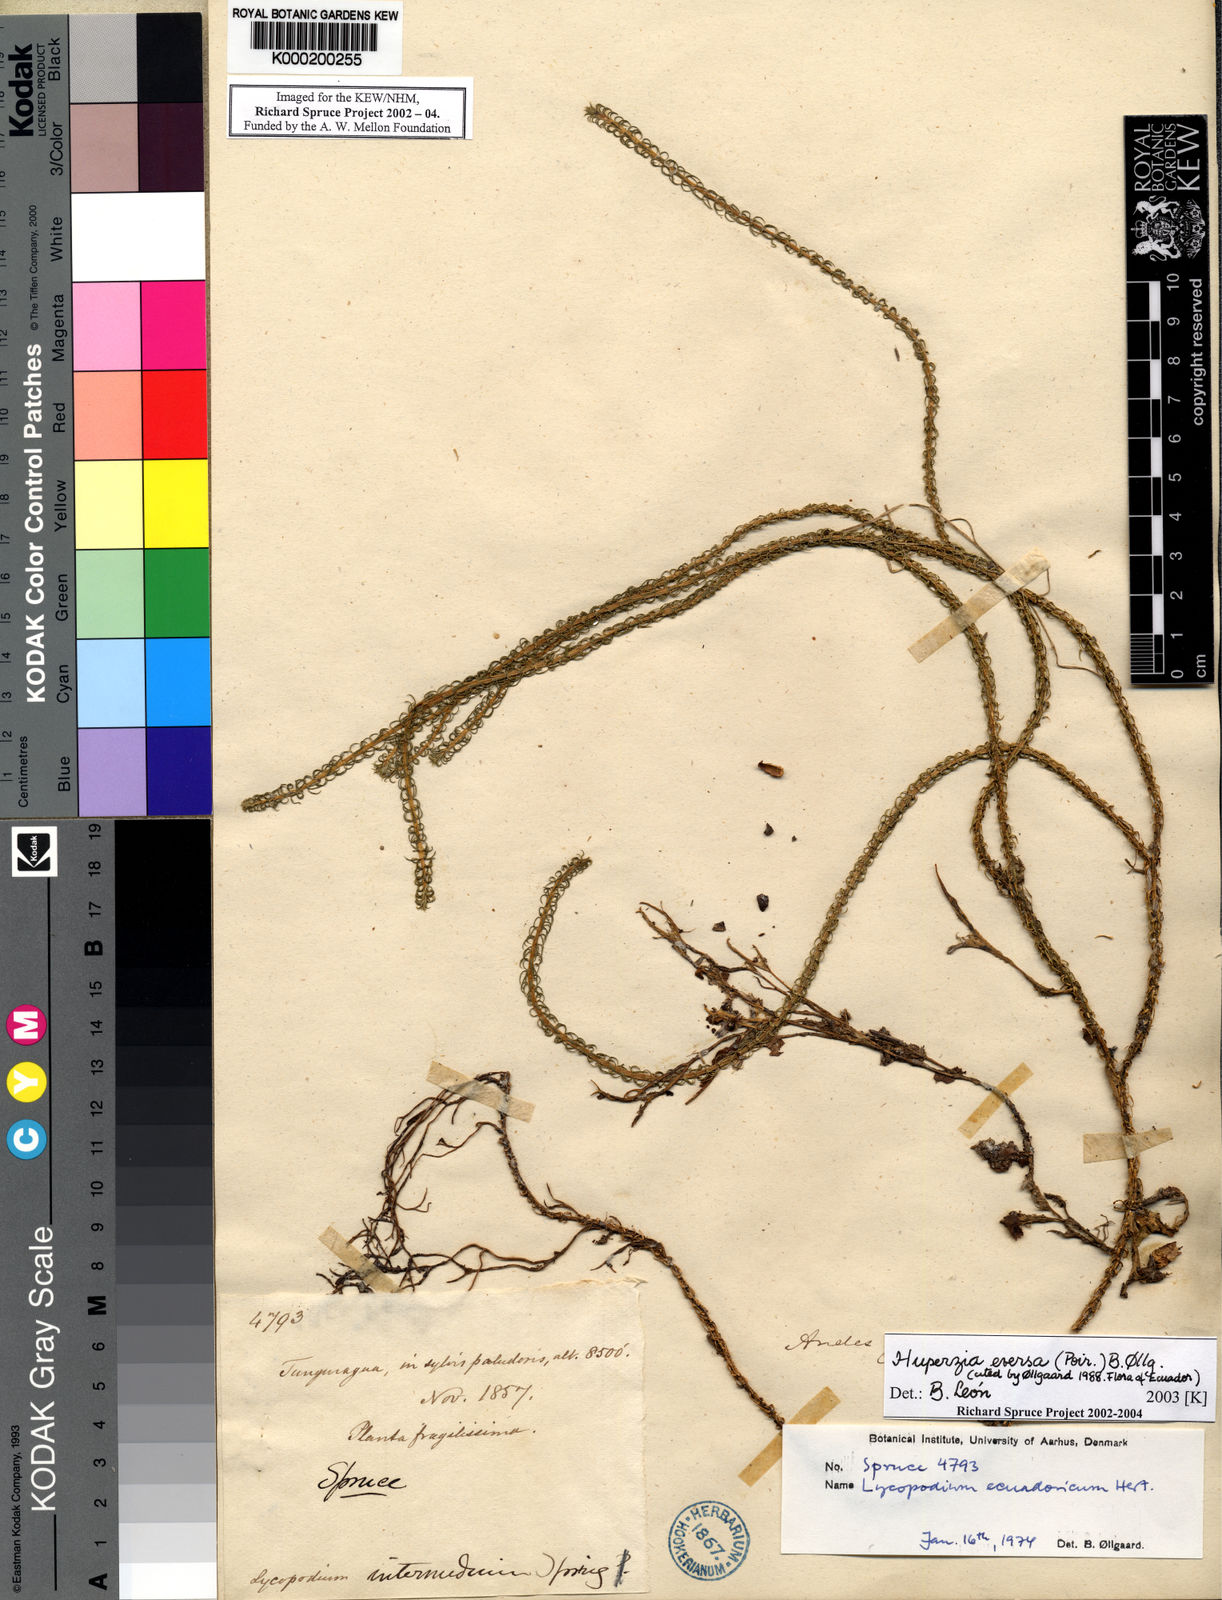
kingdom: Plantae
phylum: Tracheophyta
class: Lycopodiopsida
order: Lycopodiales
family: Lycopodiaceae
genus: Huperzia
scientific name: Huperzia
